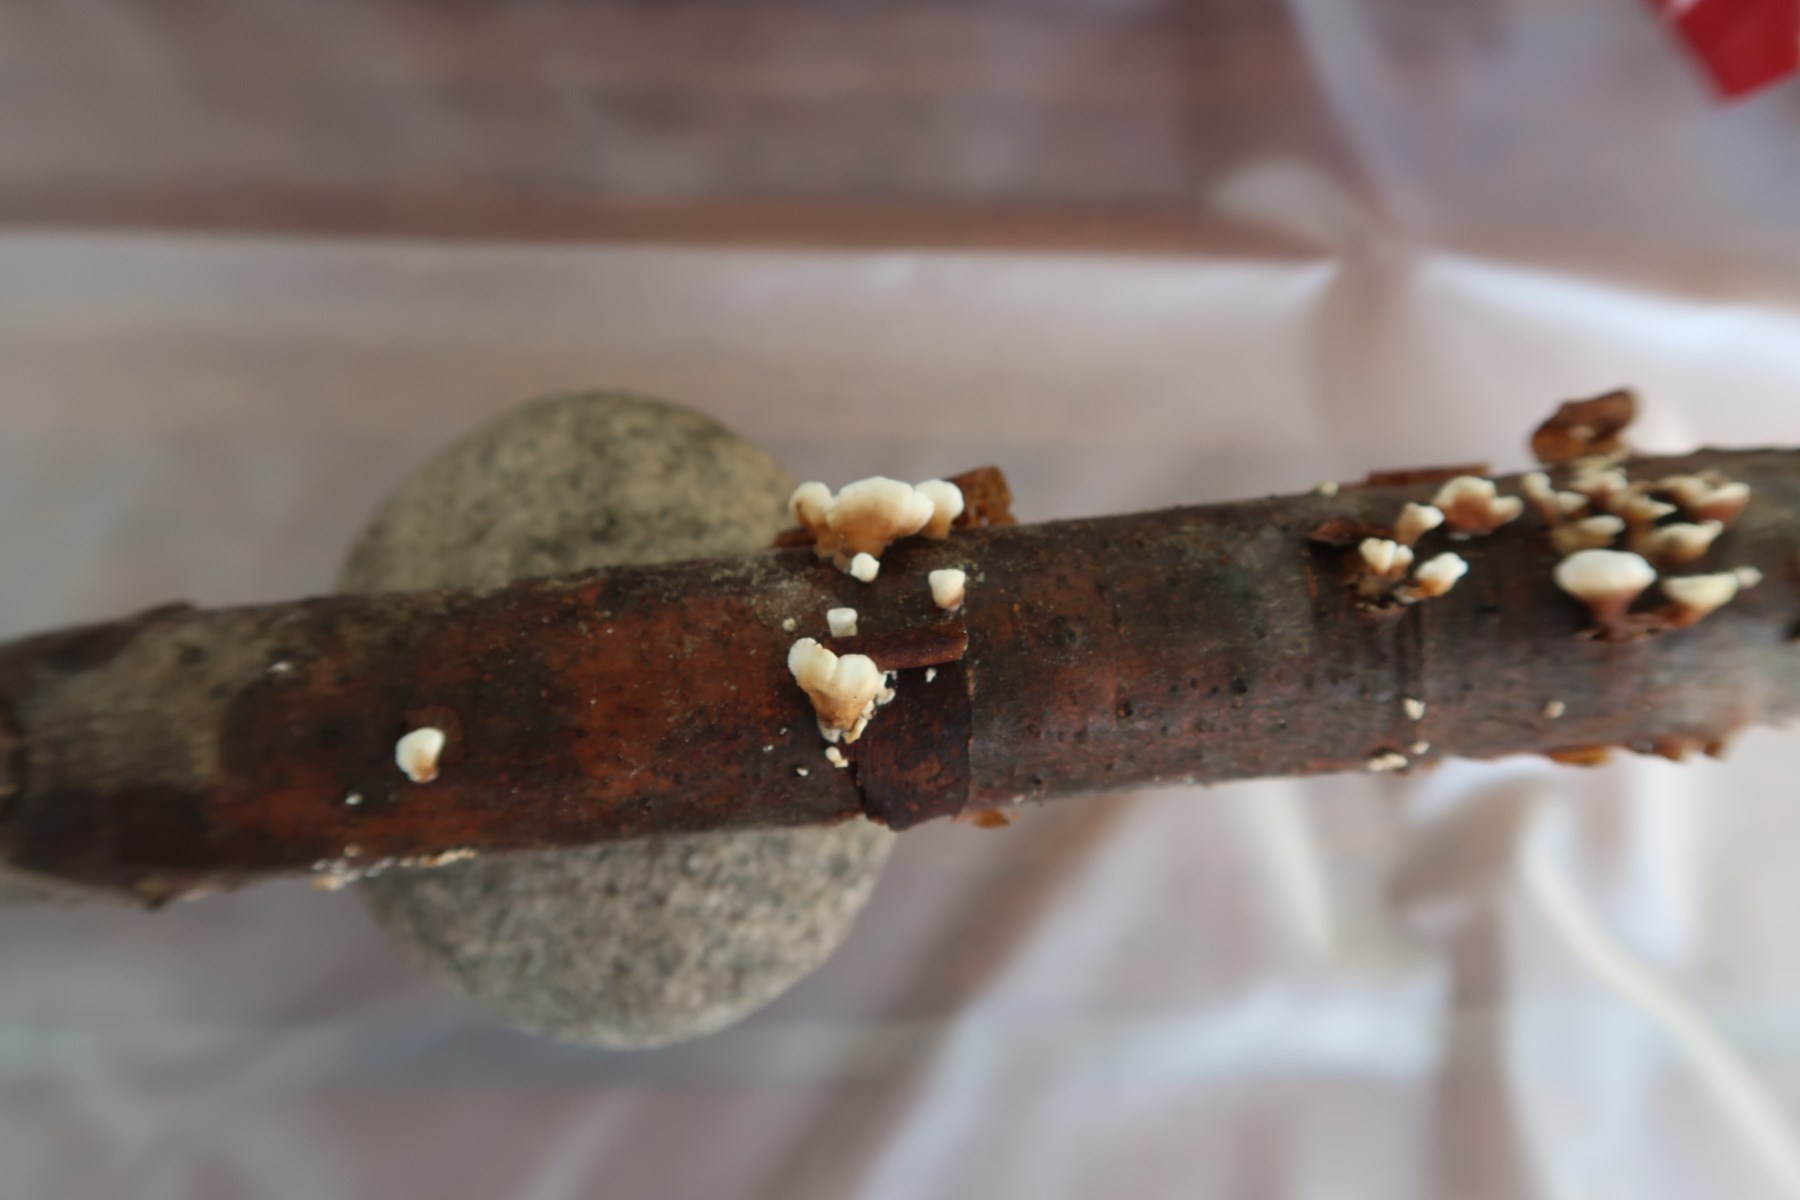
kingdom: Fungi
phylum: Basidiomycota
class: Agaricomycetes
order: Amylocorticiales
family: Amylocorticiaceae
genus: Plicaturopsis
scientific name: Plicaturopsis crispa
